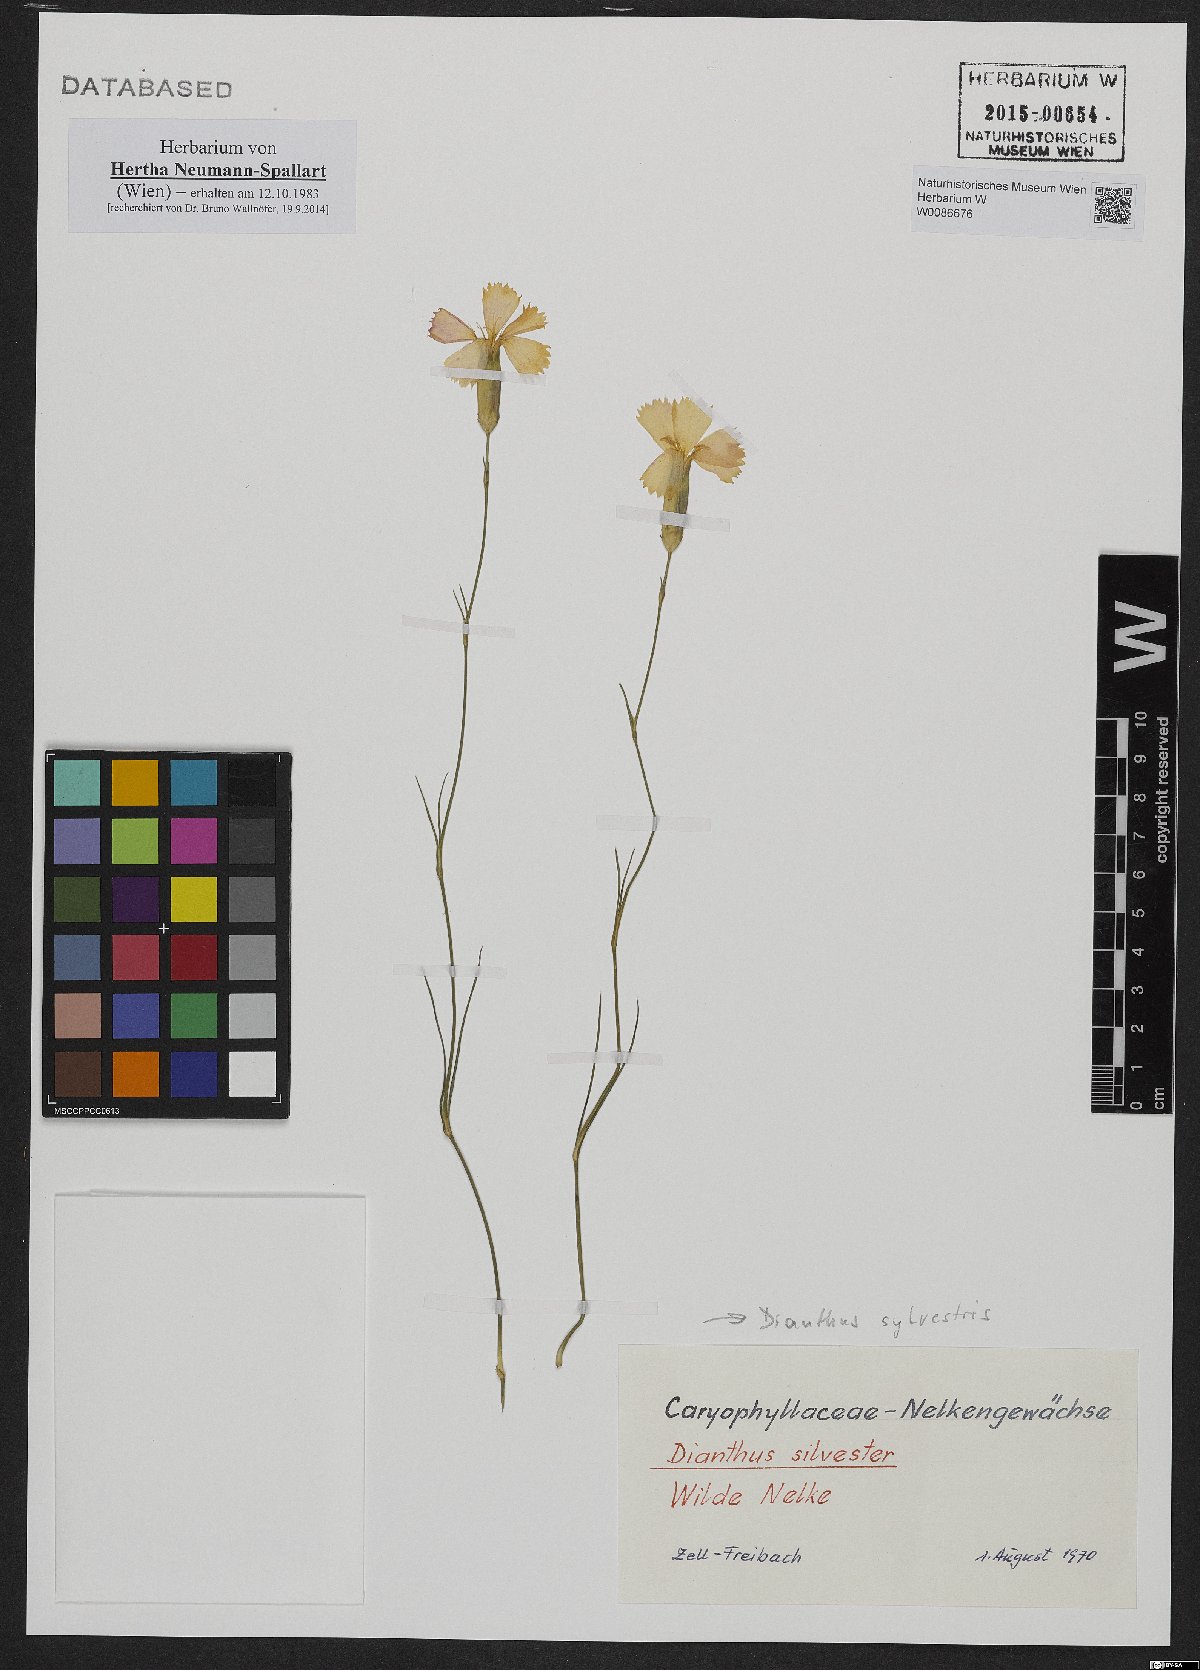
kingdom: Plantae
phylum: Tracheophyta
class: Magnoliopsida
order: Caryophyllales
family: Caryophyllaceae
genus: Dianthus
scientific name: Dianthus sylvestris
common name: Wood pink
